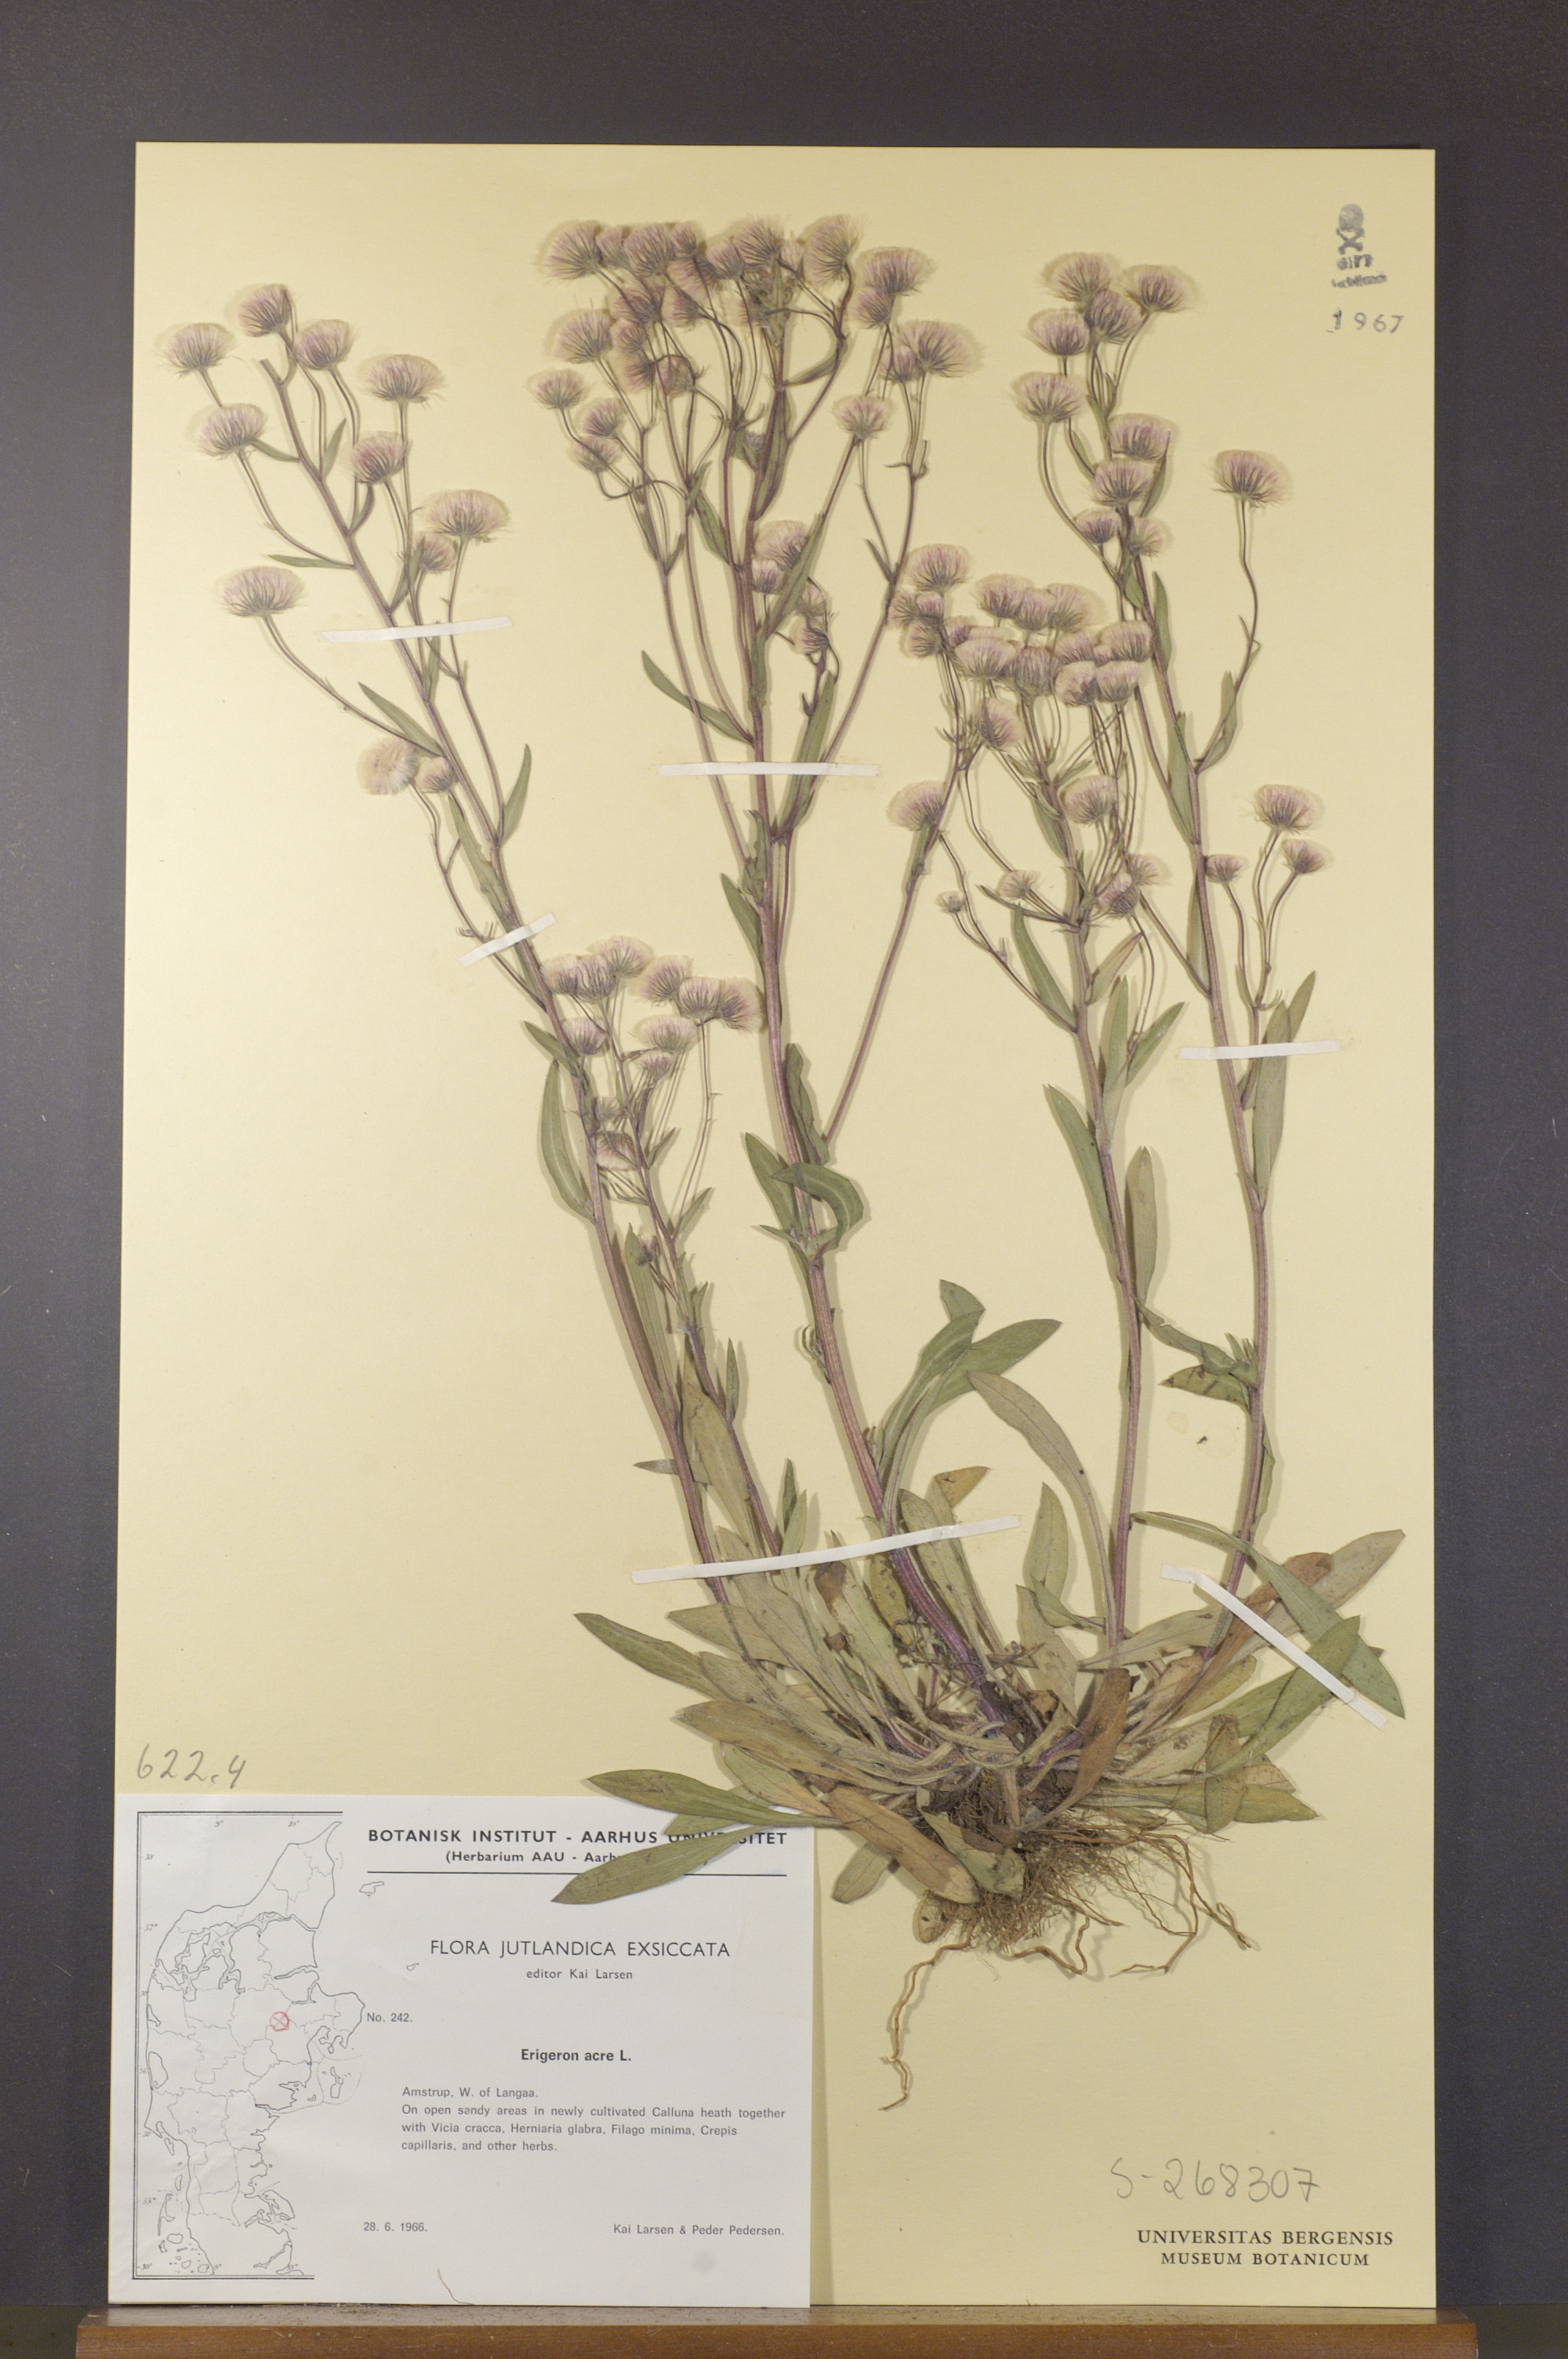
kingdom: Plantae
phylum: Tracheophyta
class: Magnoliopsida
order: Asterales
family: Asteraceae
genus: Erigeron
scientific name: Erigeron acris
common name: Blue fleabane
